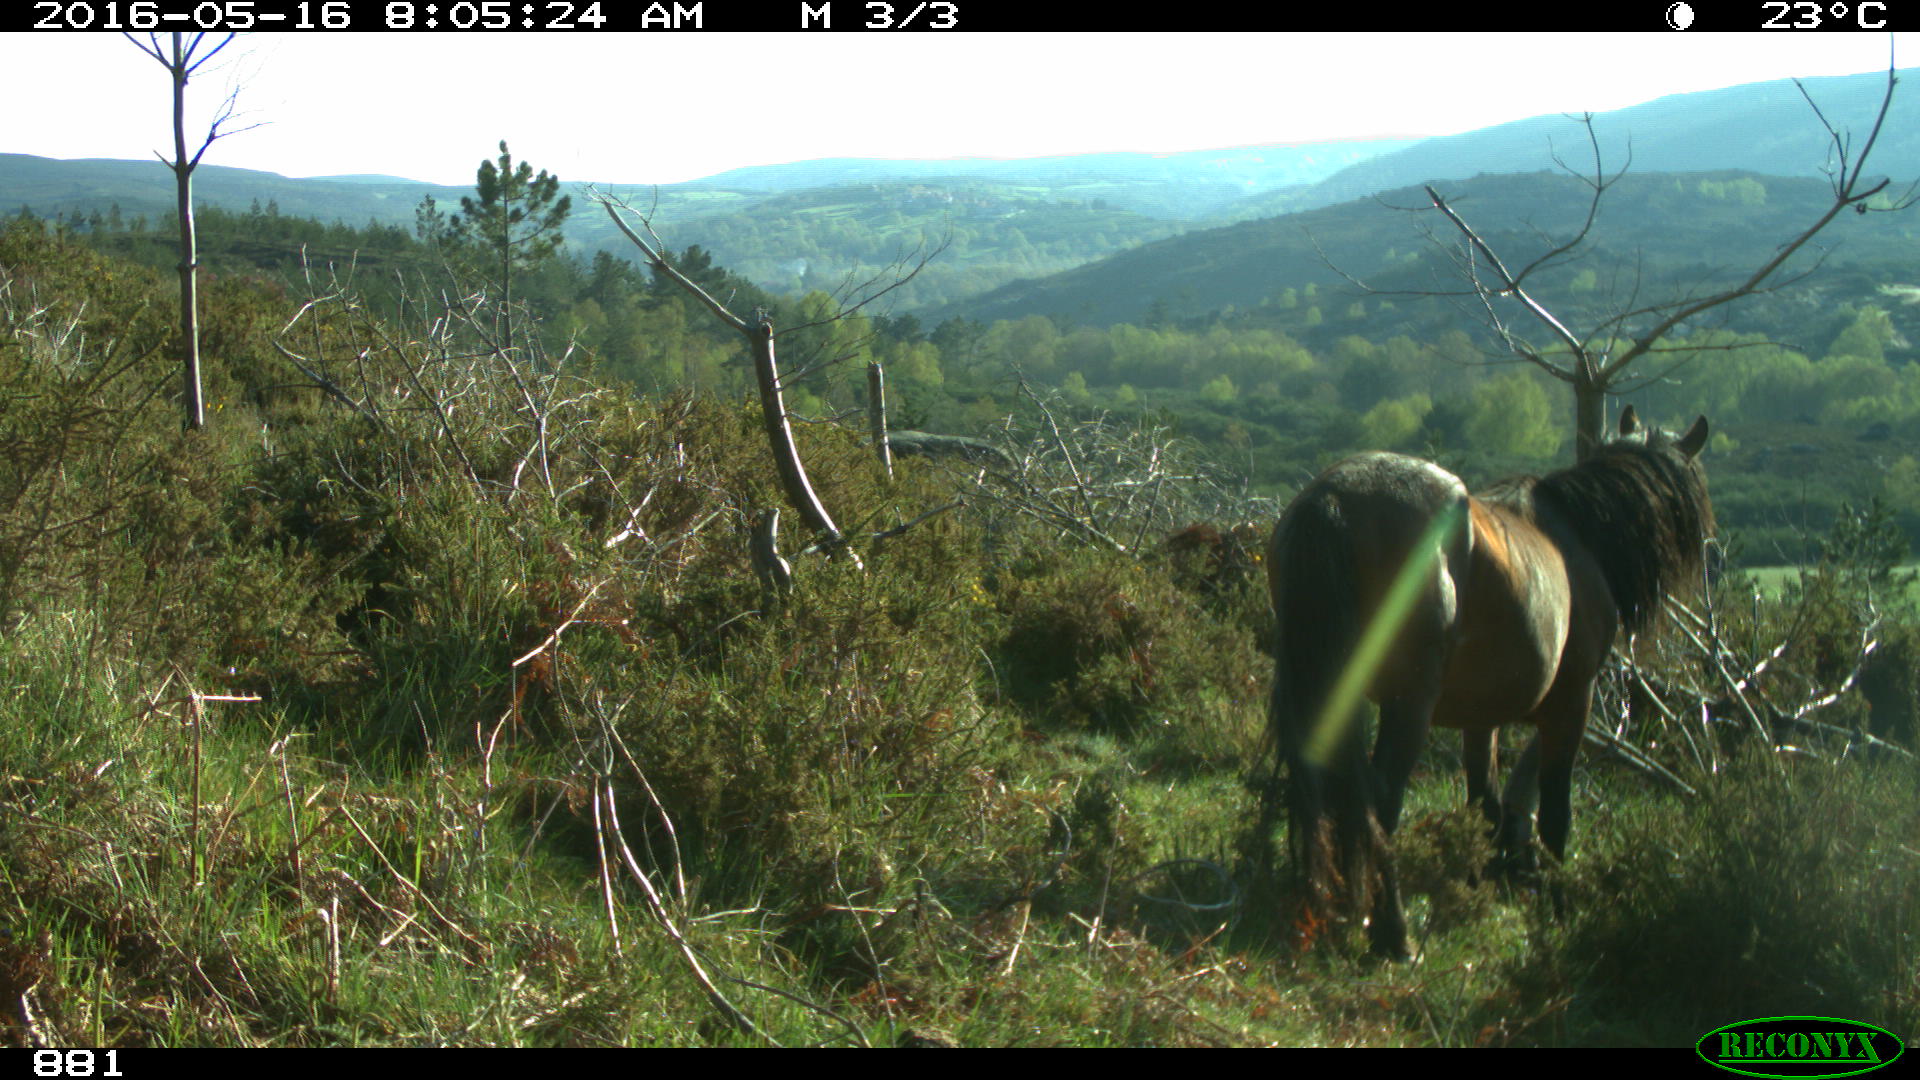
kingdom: Animalia
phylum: Chordata
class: Mammalia
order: Perissodactyla
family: Equidae
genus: Equus
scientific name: Equus caballus
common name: Horse
